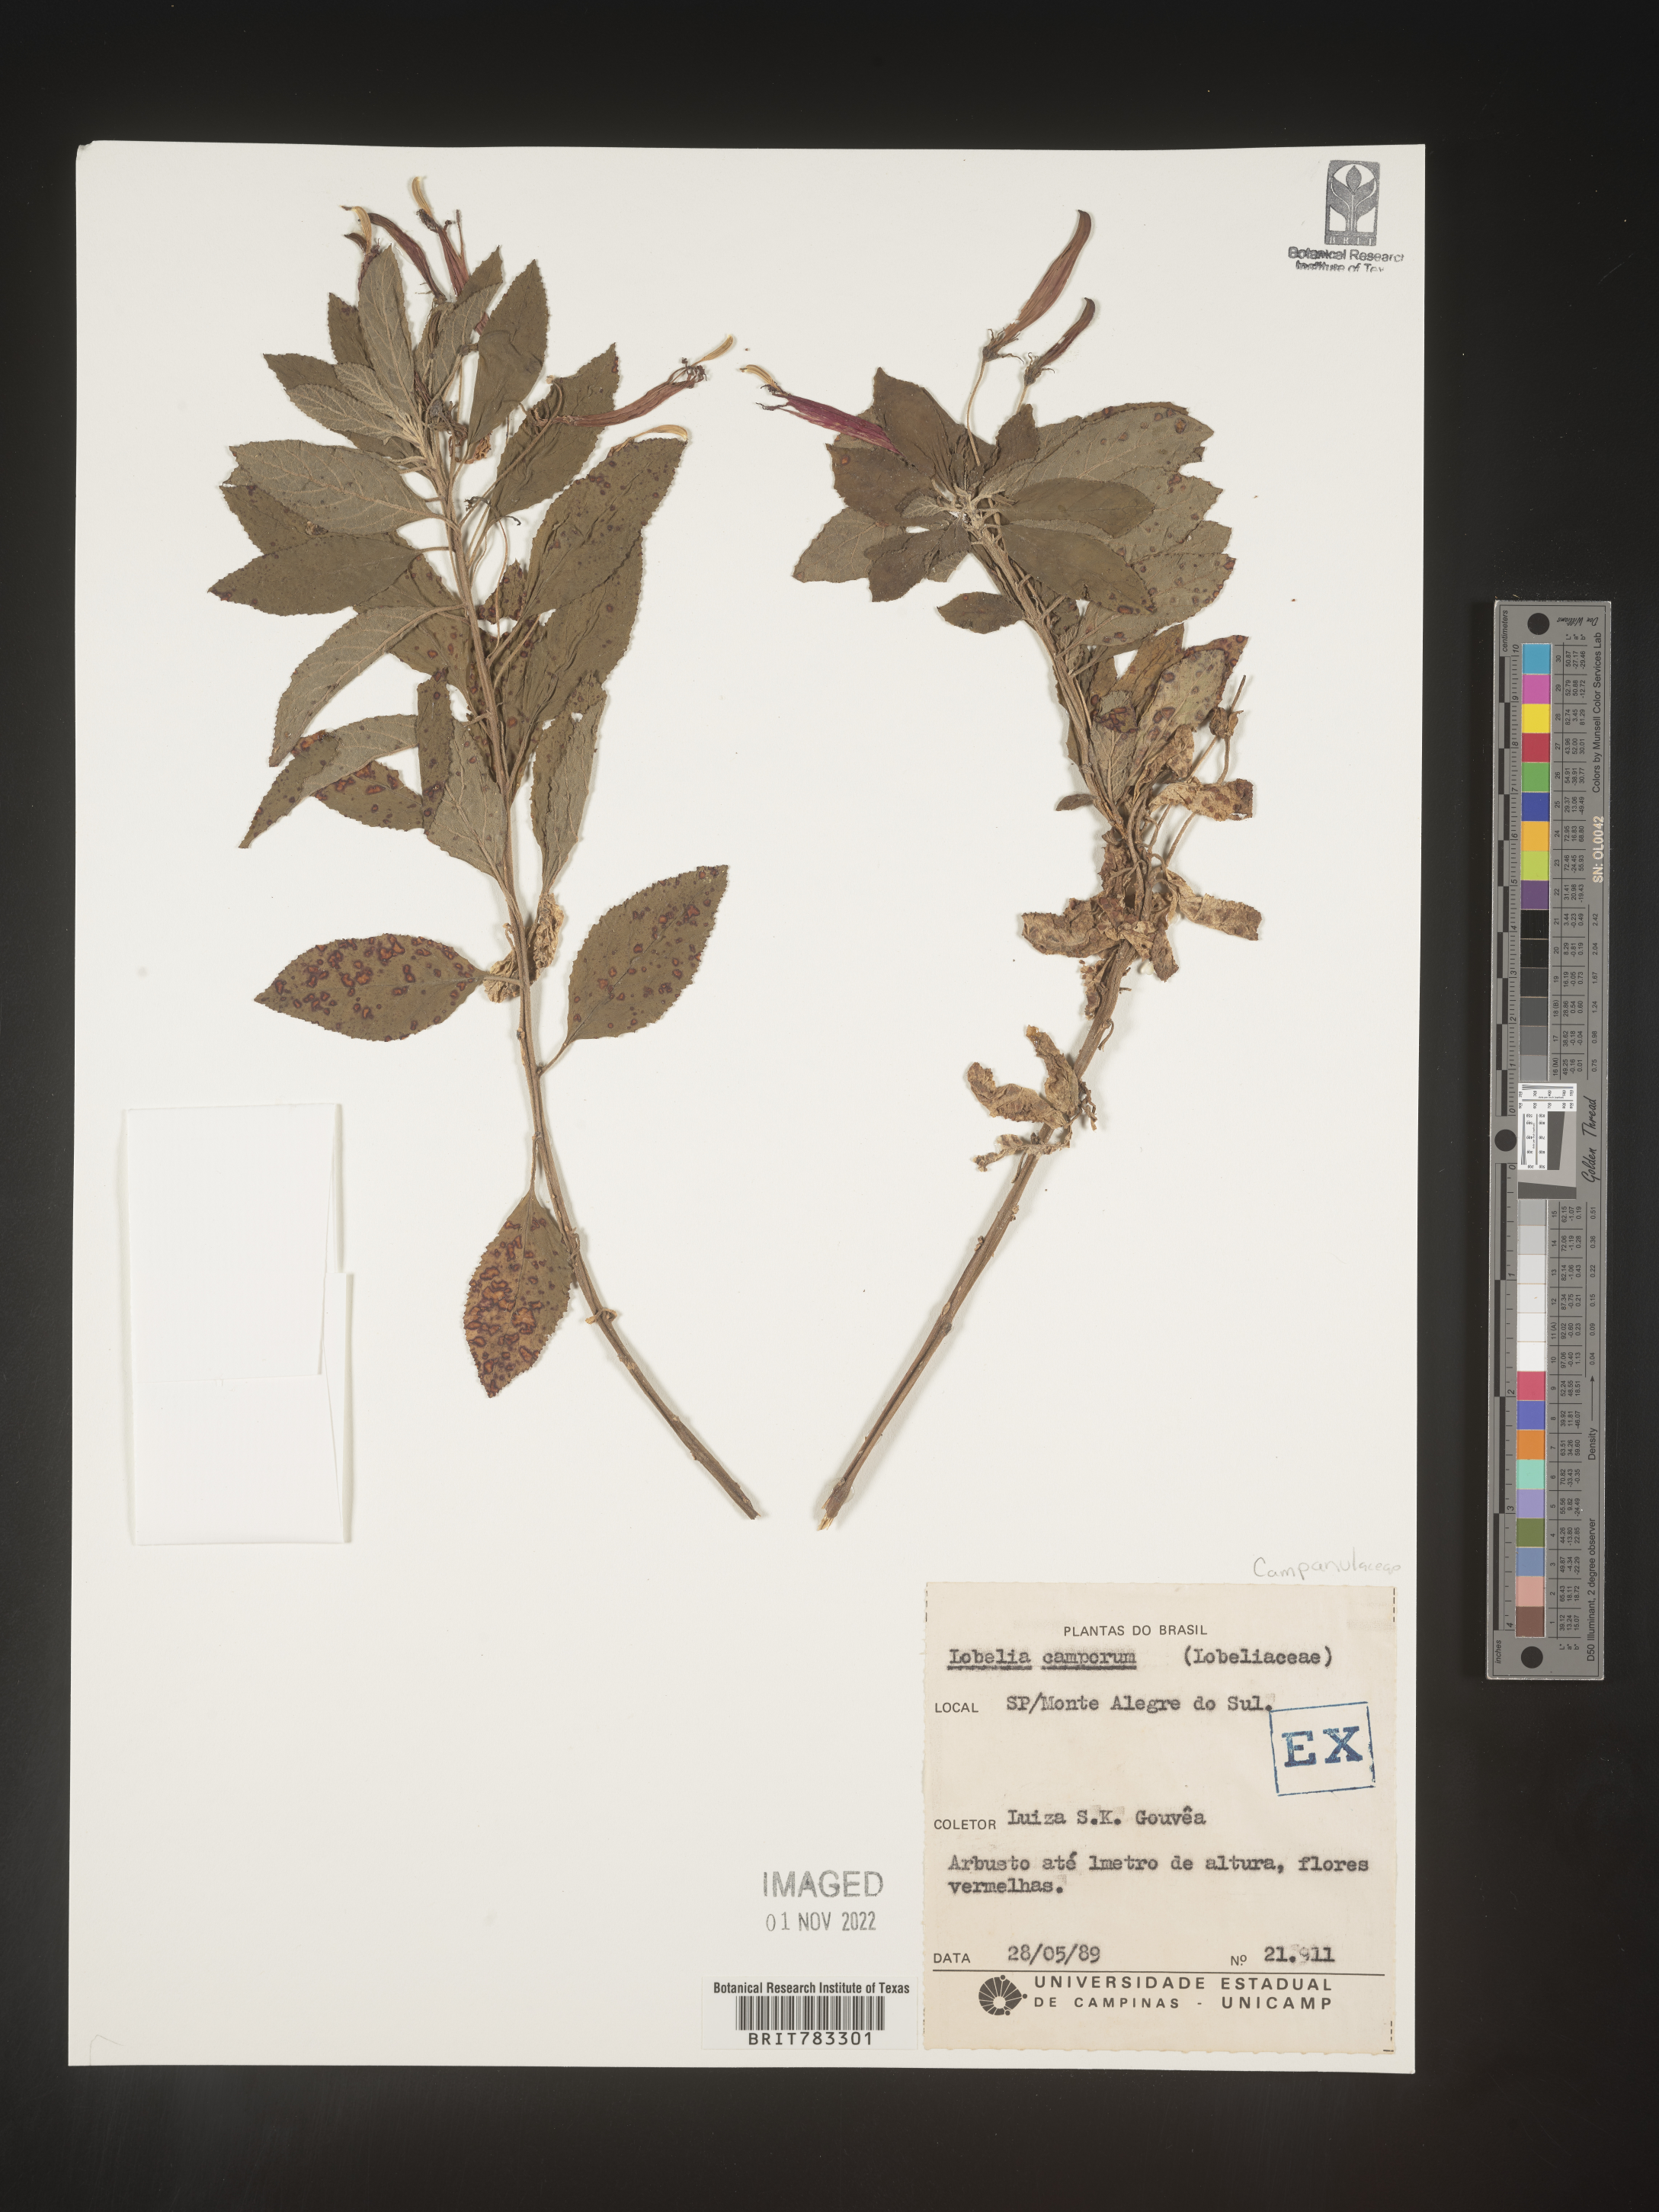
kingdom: Plantae
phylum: Tracheophyta
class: Magnoliopsida
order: Asterales
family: Campanulaceae
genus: Lobelia
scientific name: Lobelia
